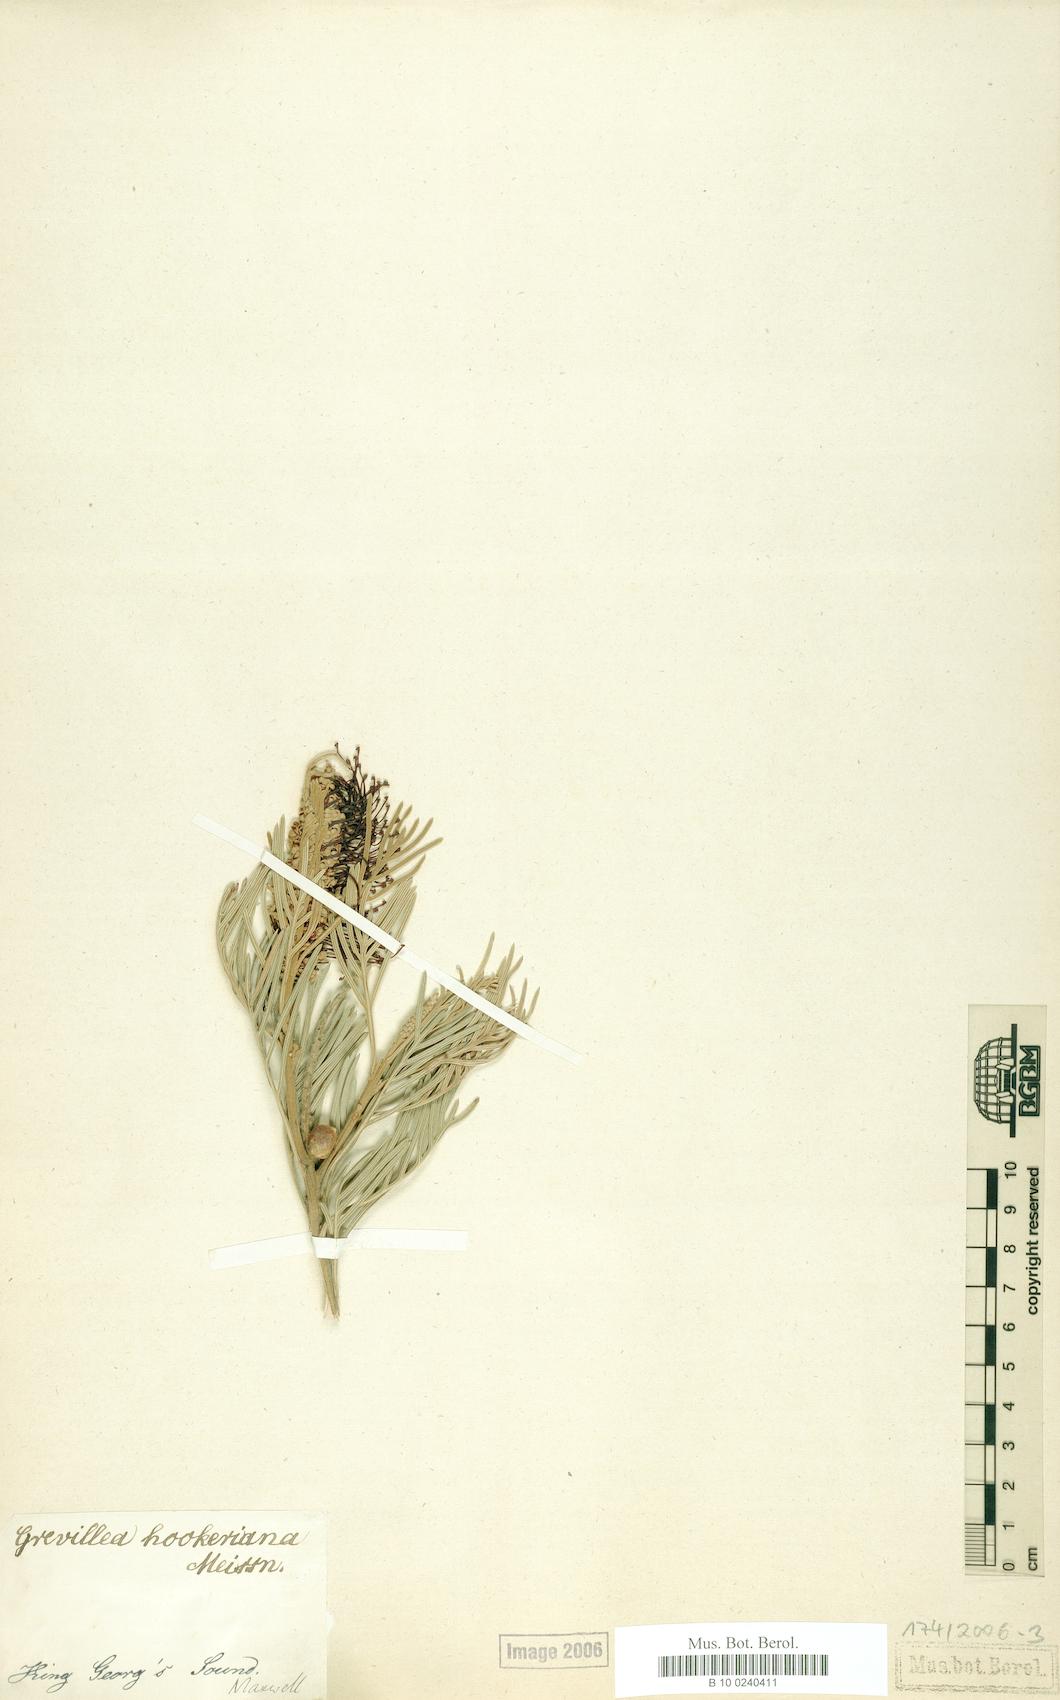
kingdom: Plantae
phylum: Tracheophyta
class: Magnoliopsida
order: Proteales
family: Proteaceae
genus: Grevillea
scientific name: Grevillea hookeriana
